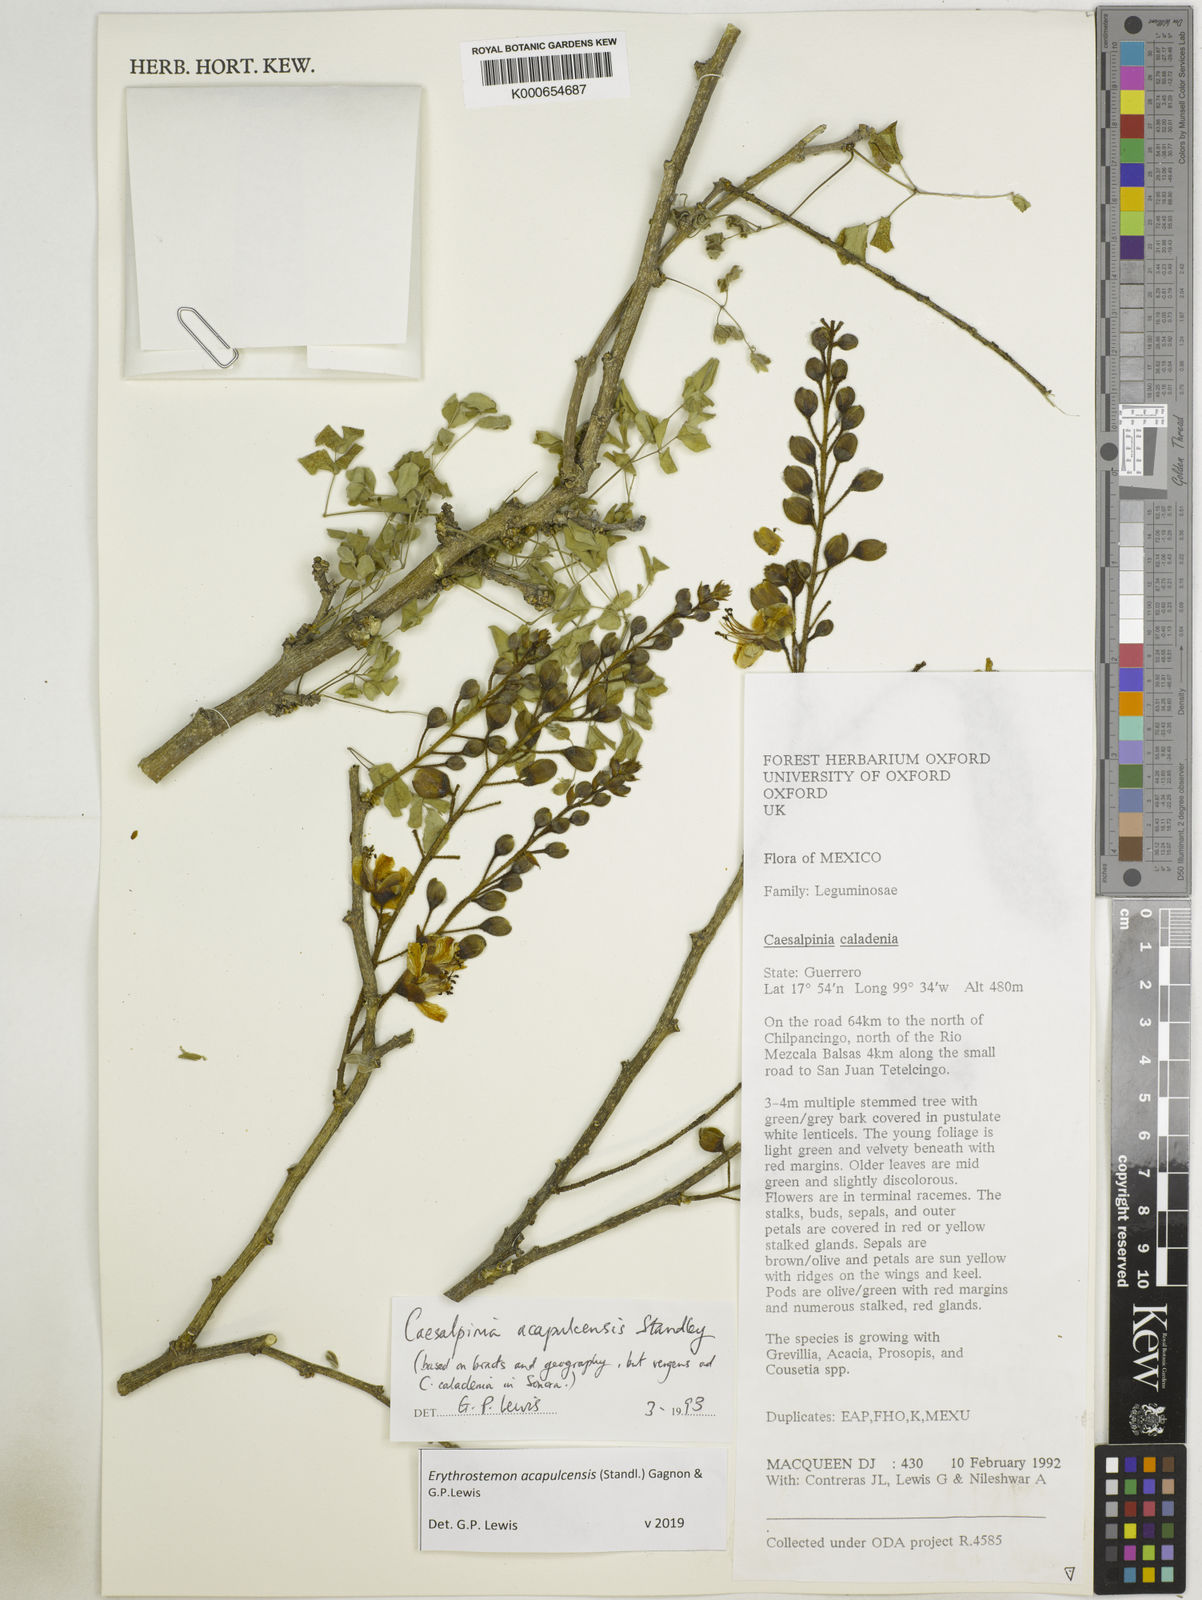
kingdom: Plantae
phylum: Tracheophyta
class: Magnoliopsida
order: Fabales
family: Fabaceae
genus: Erythrostemon
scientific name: Erythrostemon acapulcensis
